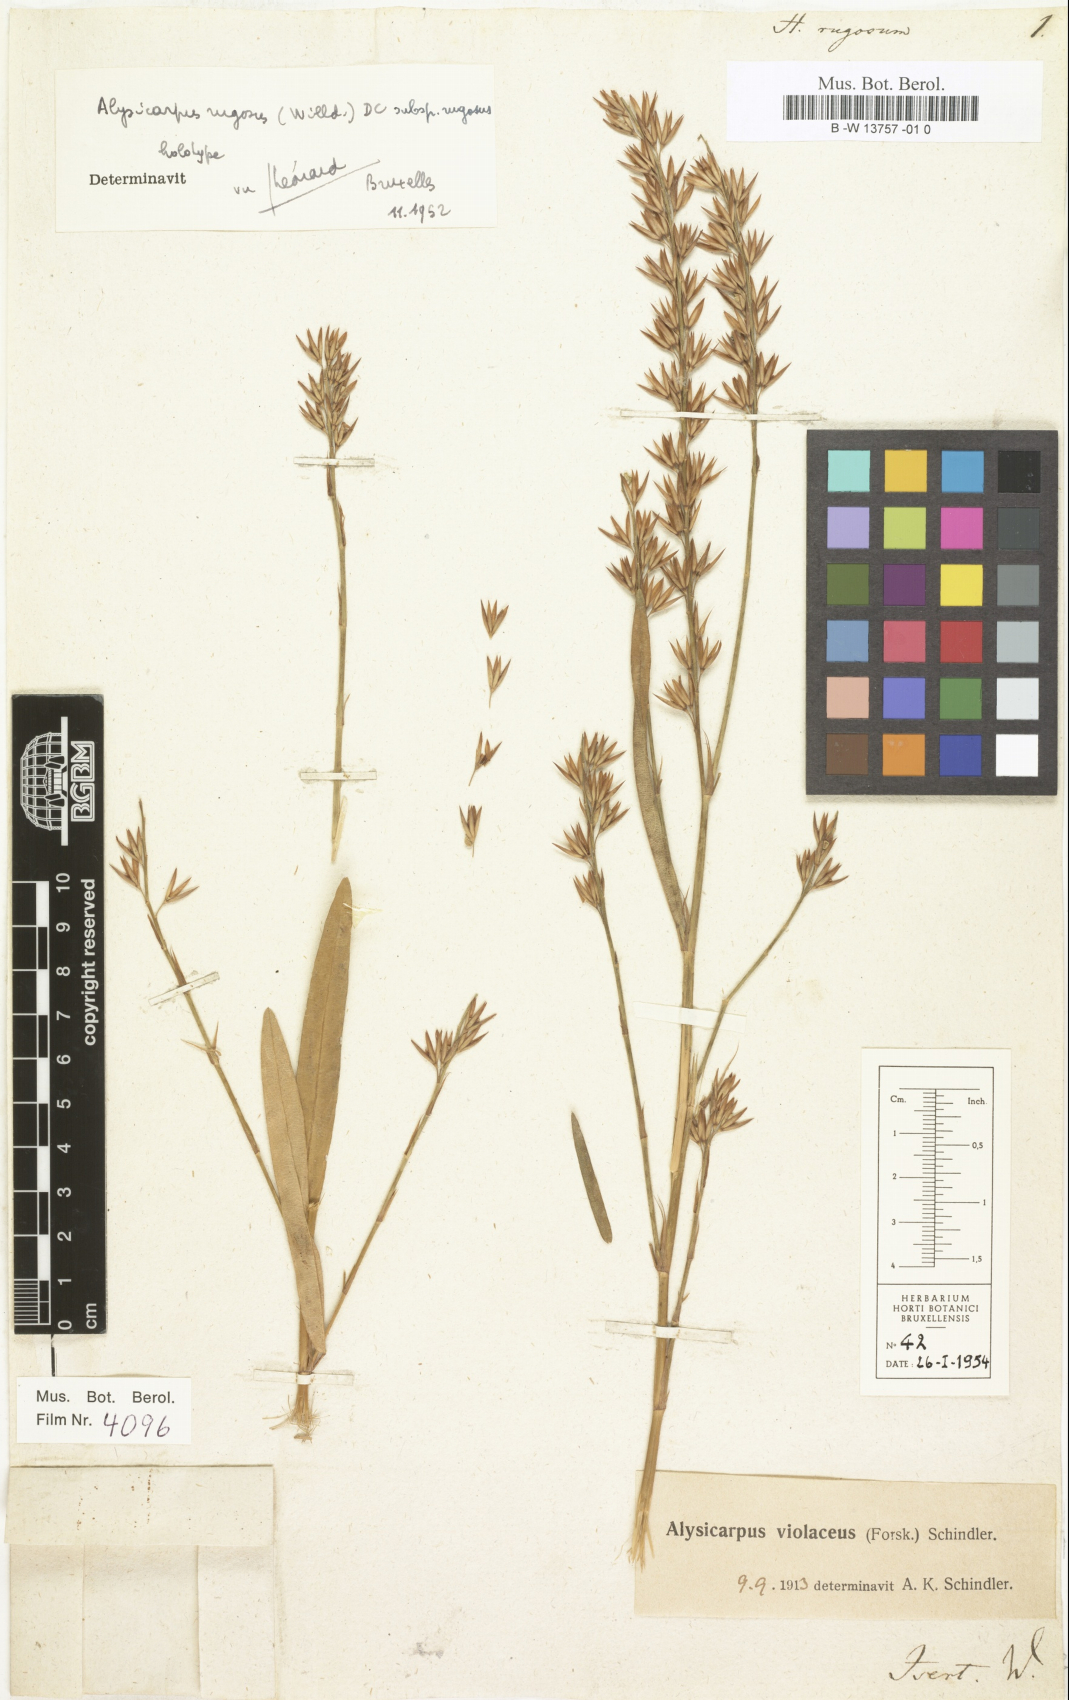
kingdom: Plantae
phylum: Tracheophyta
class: Magnoliopsida
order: Fabales
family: Fabaceae
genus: Alysicarpus
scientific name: Alysicarpus
